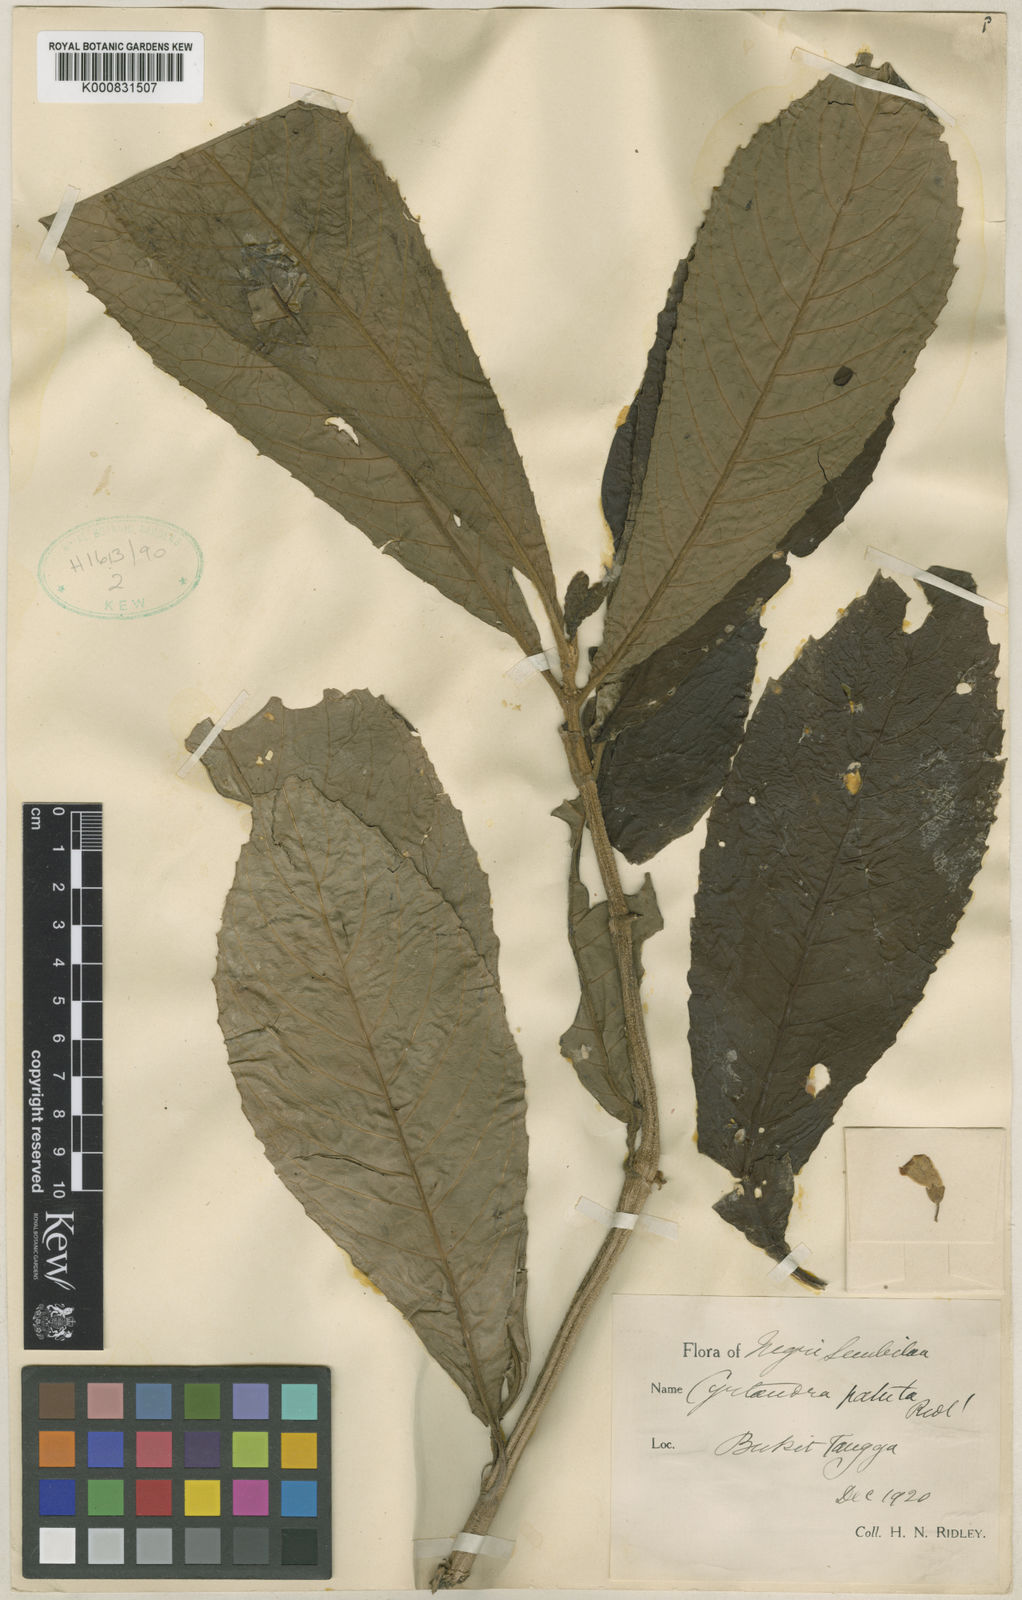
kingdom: Plantae
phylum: Tracheophyta
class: Magnoliopsida
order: Lamiales
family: Gesneriaceae
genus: Cyrtandra
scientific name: Cyrtandra patula
